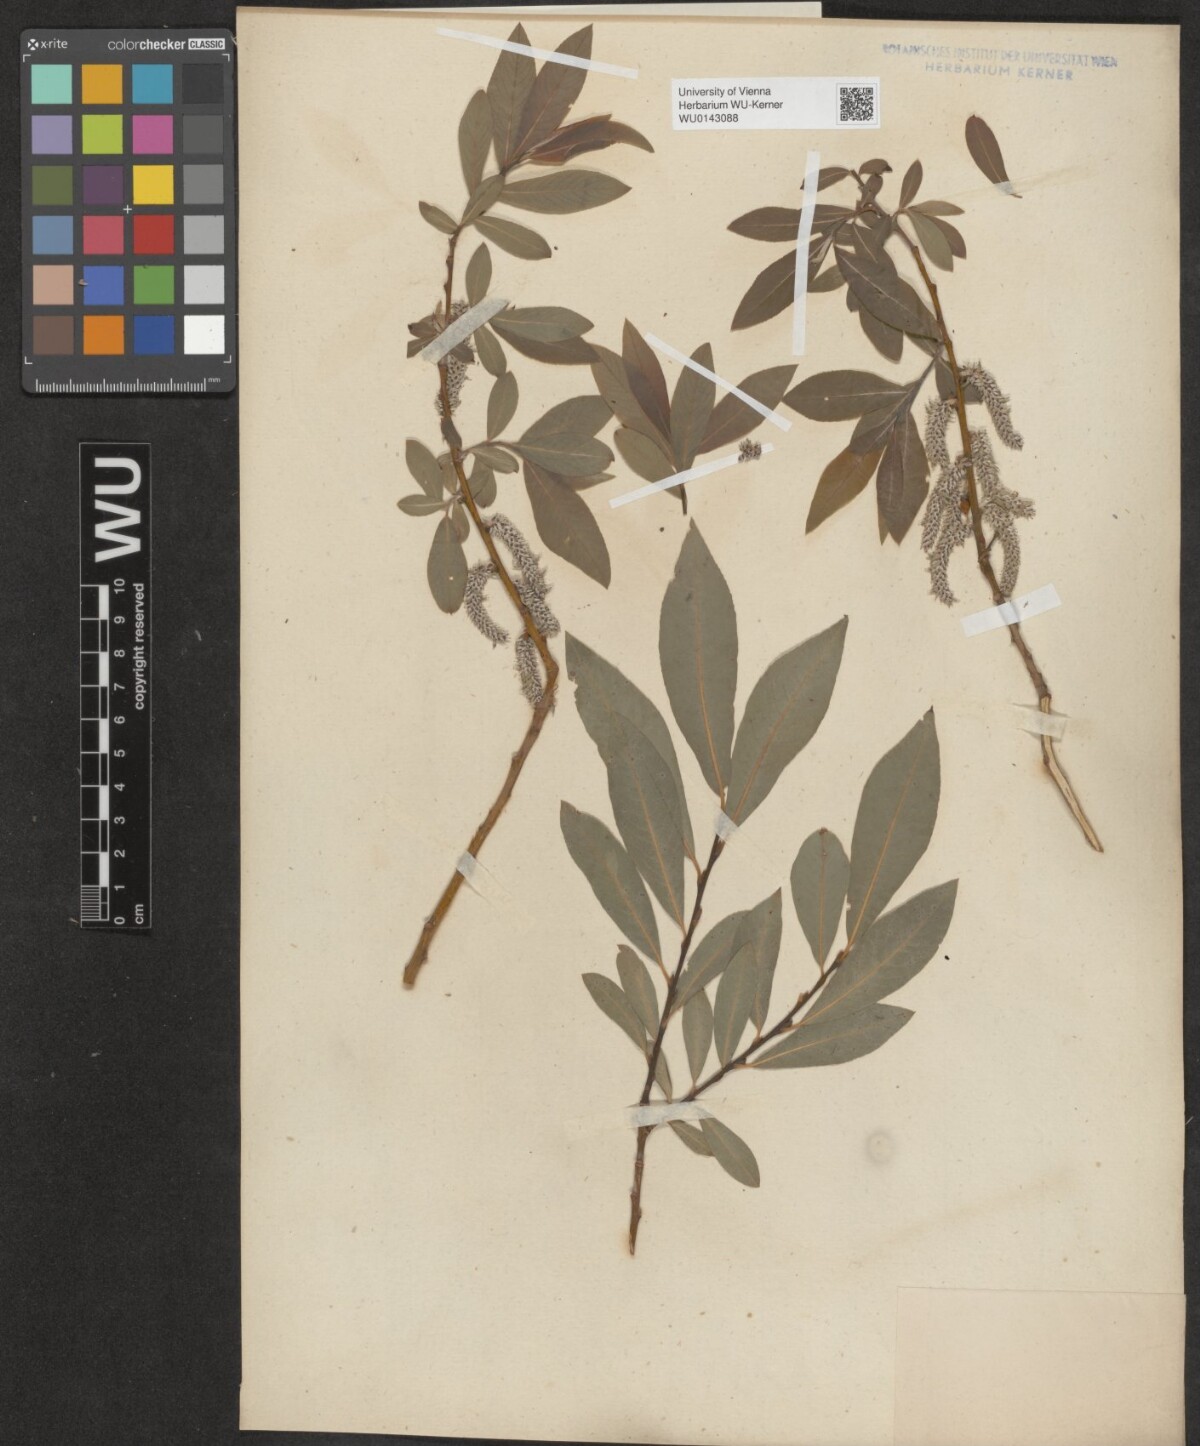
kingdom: Plantae
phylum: Tracheophyta
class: Magnoliopsida
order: Malpighiales
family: Salicaceae
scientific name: Salicaceae
